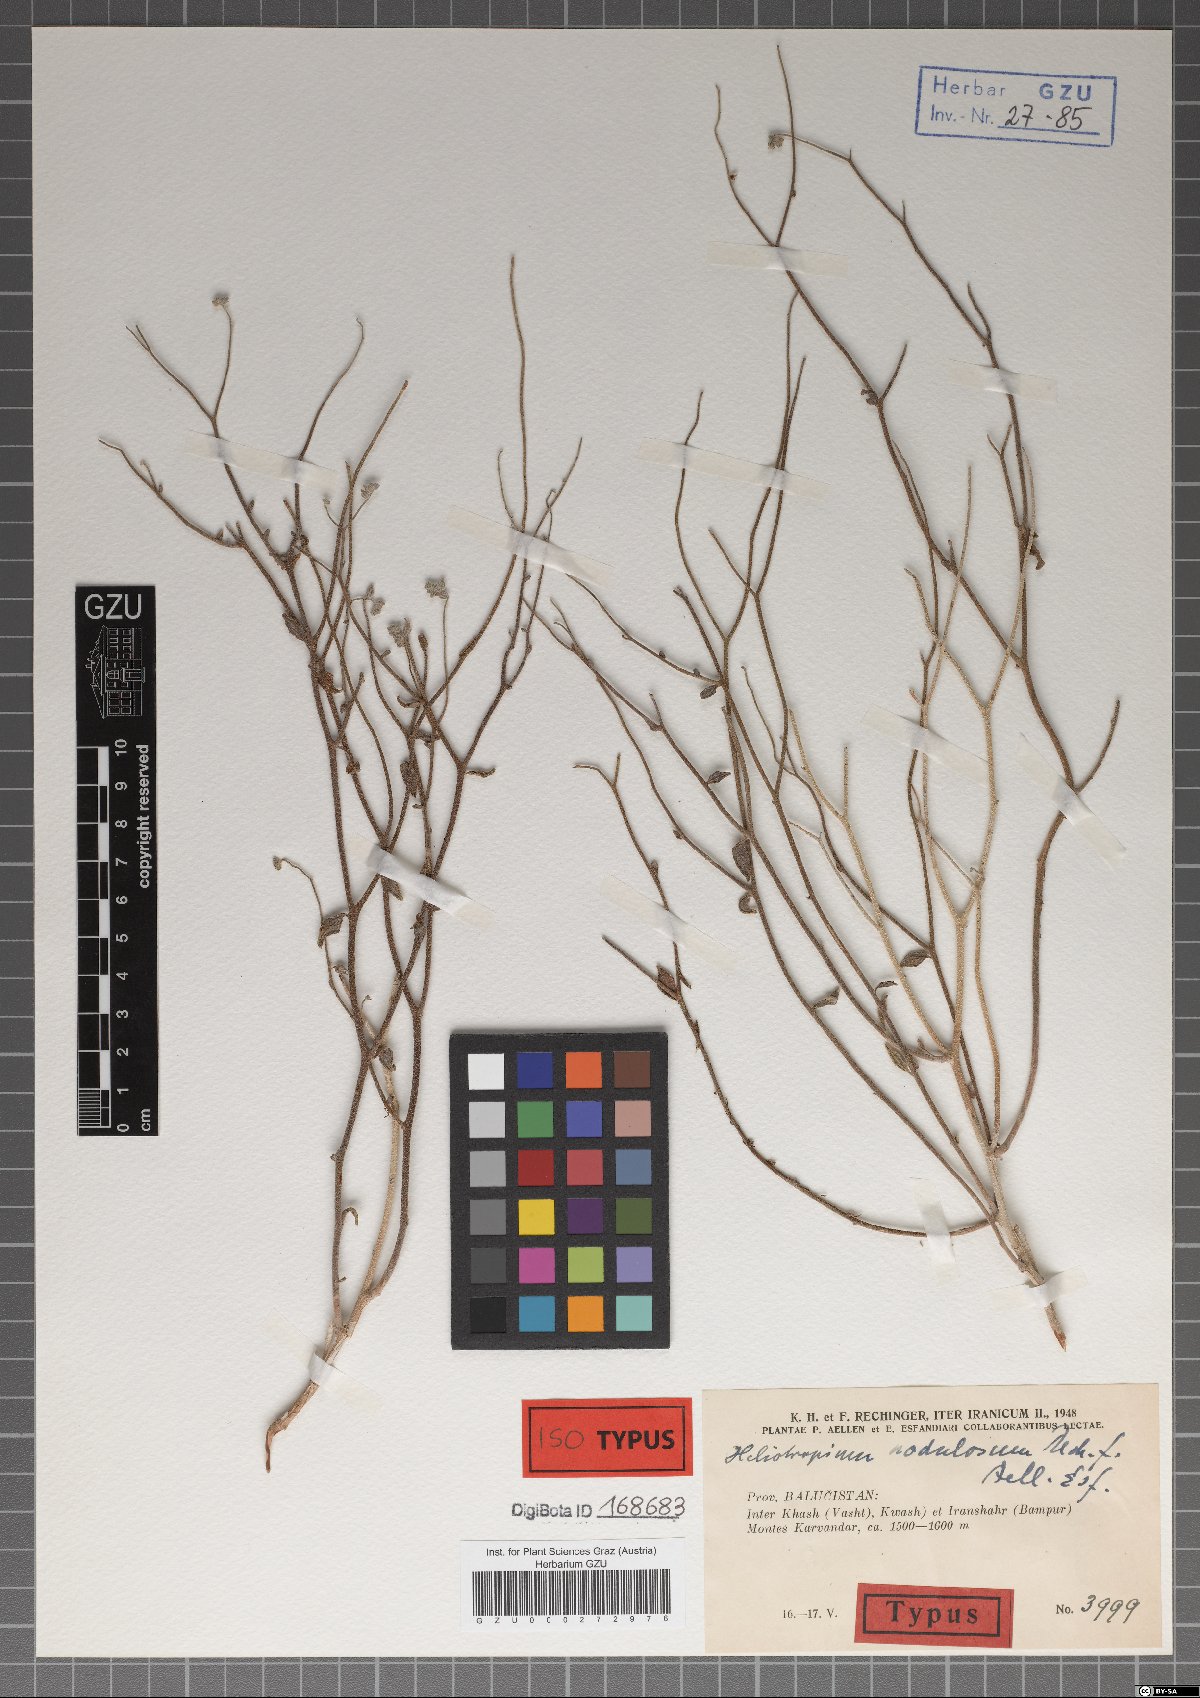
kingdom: Plantae
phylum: Tracheophyta
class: Magnoliopsida
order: Boraginales
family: Heliotropiaceae
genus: Heliotropium
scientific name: Heliotropium nodulosum
